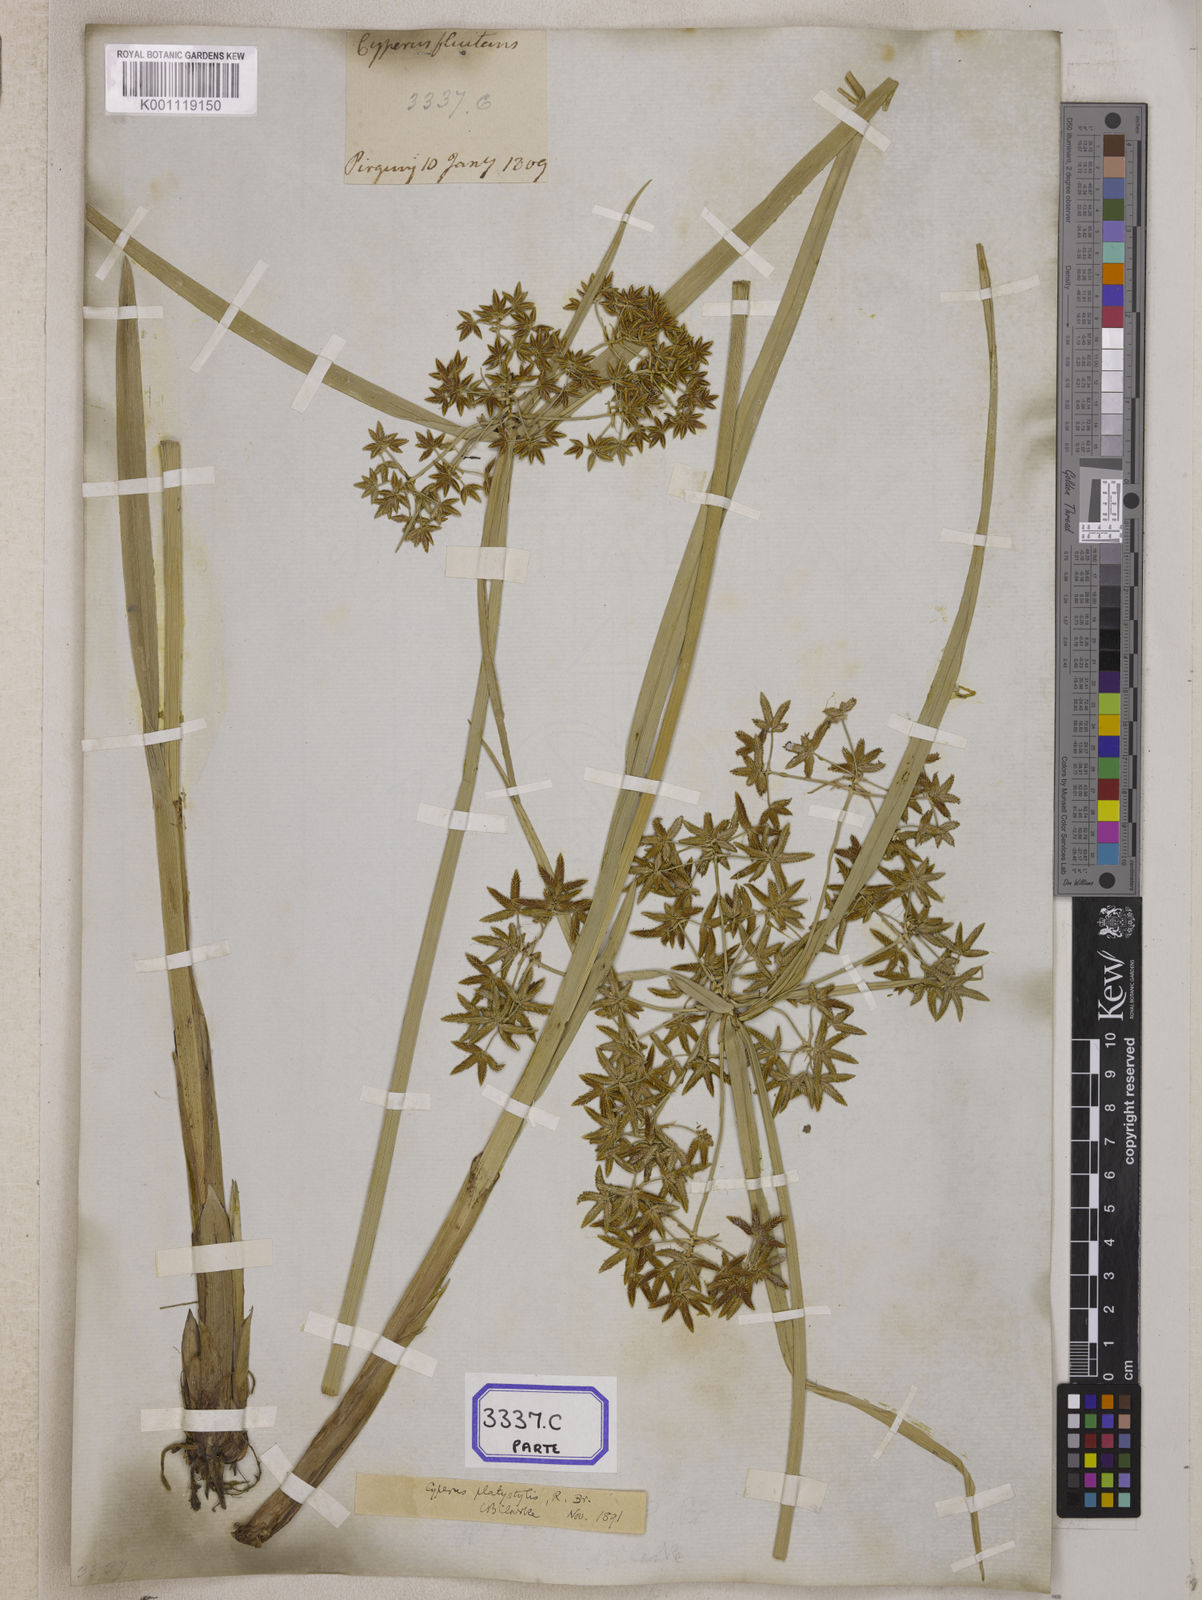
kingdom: Plantae
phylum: Tracheophyta
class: Liliopsida
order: Poales
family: Cyperaceae
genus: Cyperus
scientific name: Cyperus
